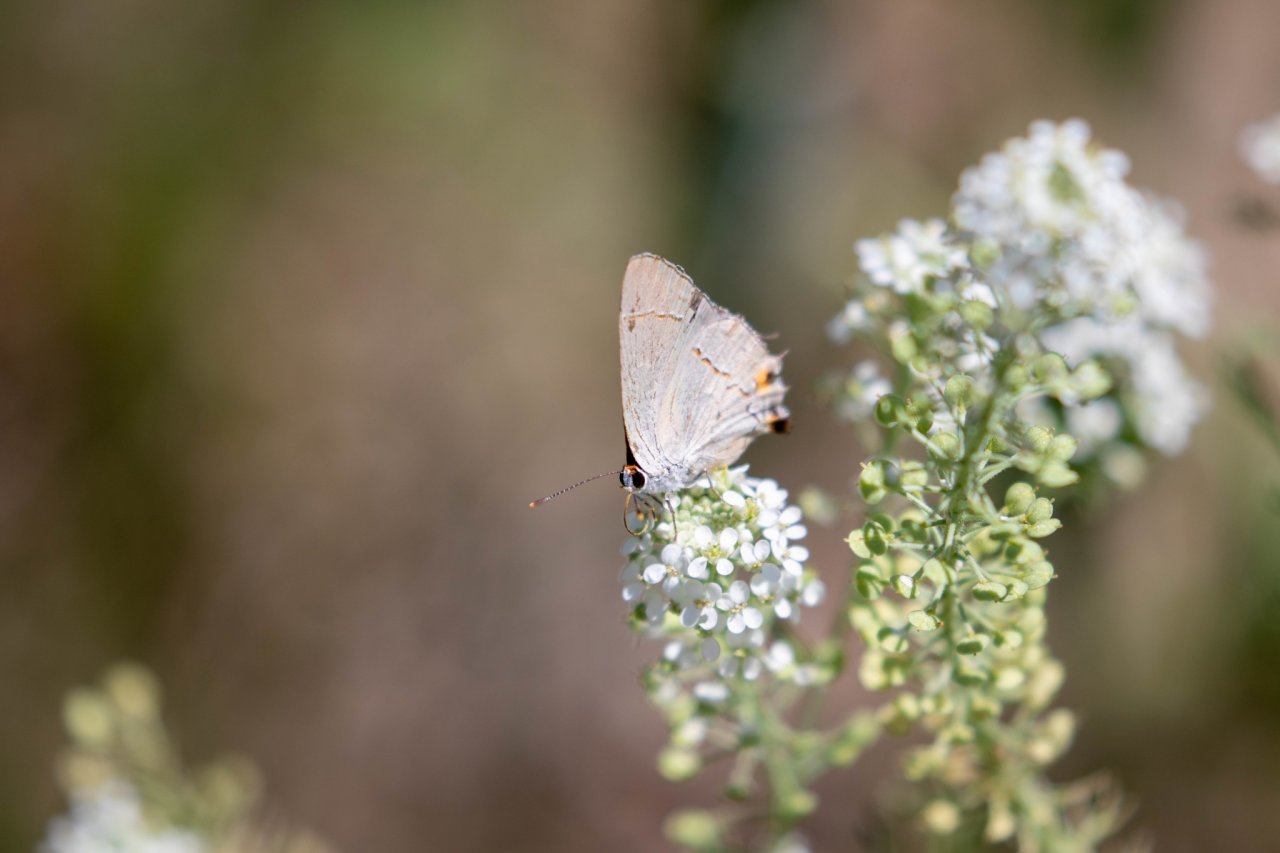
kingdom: Animalia
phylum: Arthropoda
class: Insecta
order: Lepidoptera
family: Lycaenidae
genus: Strymon
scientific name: Strymon melinus
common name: Gray Hairstreak
